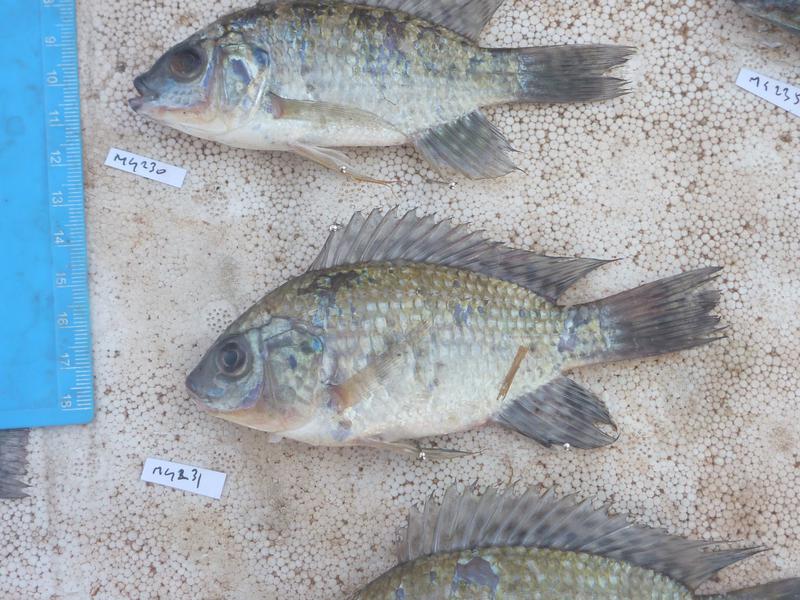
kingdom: Animalia
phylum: Chordata
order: Perciformes
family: Cichlidae
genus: Oreochromis
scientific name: Oreochromis leucostictus
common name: Blue spotted tilapia
